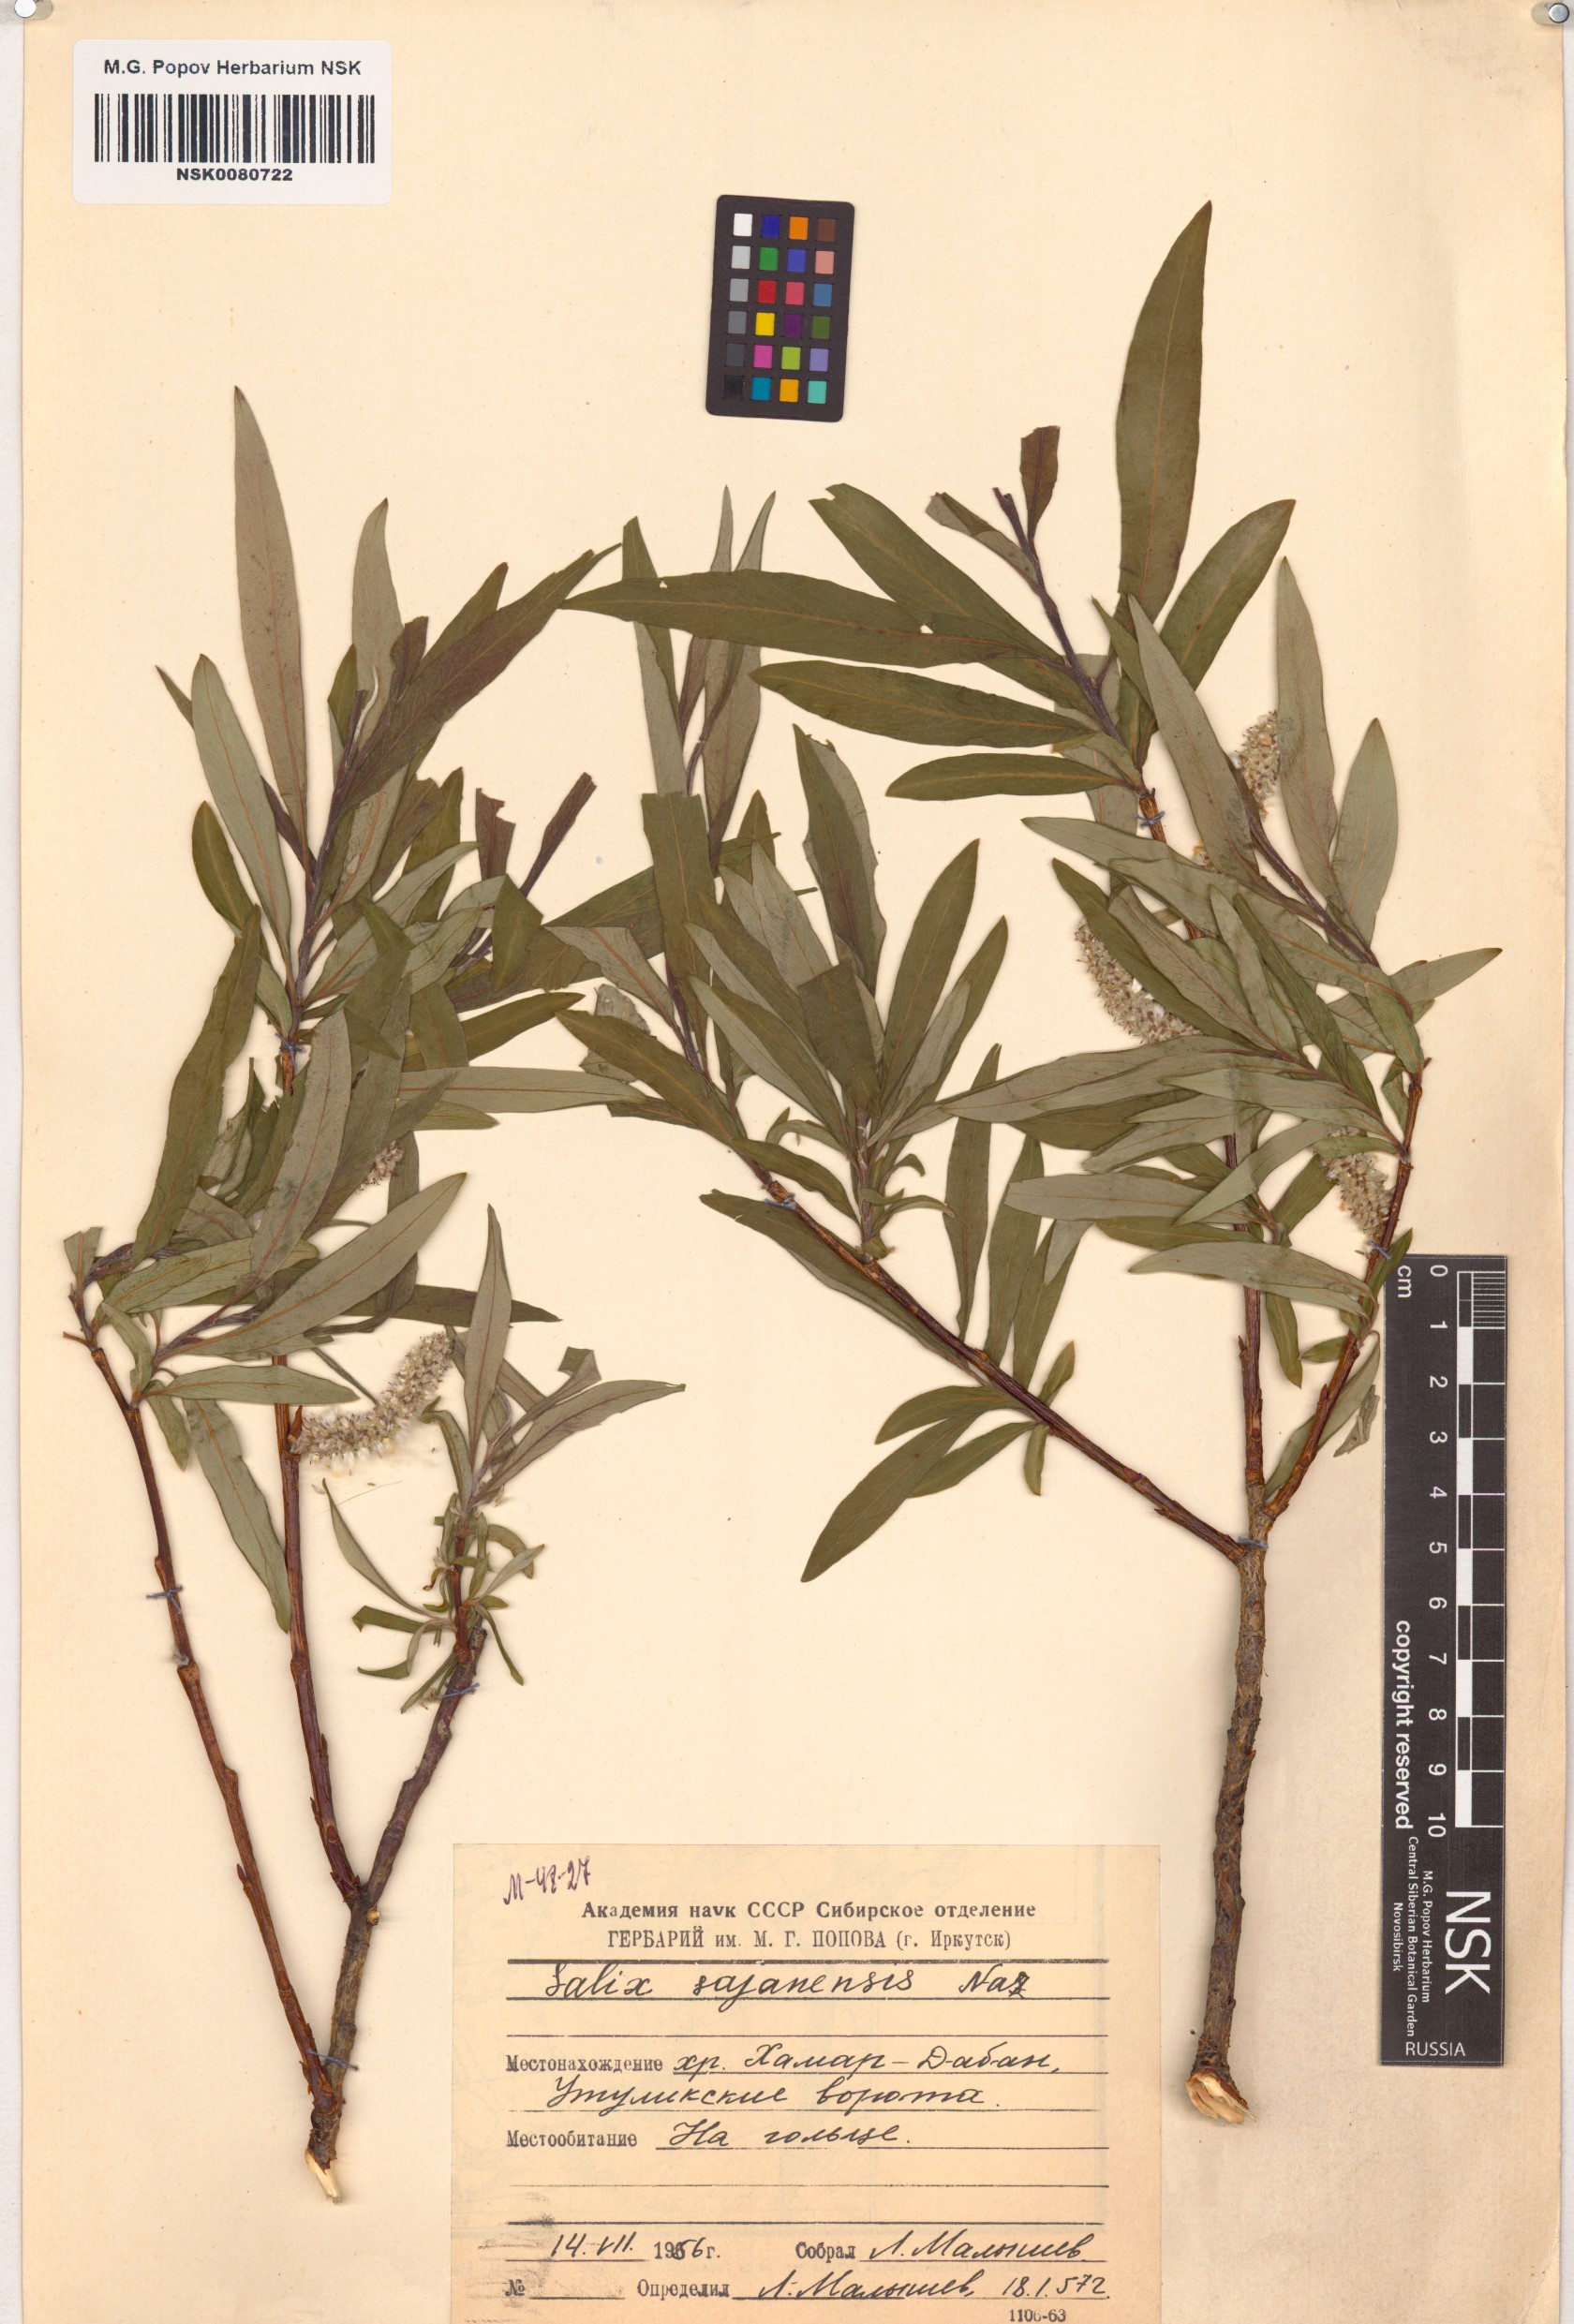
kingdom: Plantae
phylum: Tracheophyta
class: Magnoliopsida
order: Malpighiales
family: Salicaceae
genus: Salix
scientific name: Salix sajanensis
